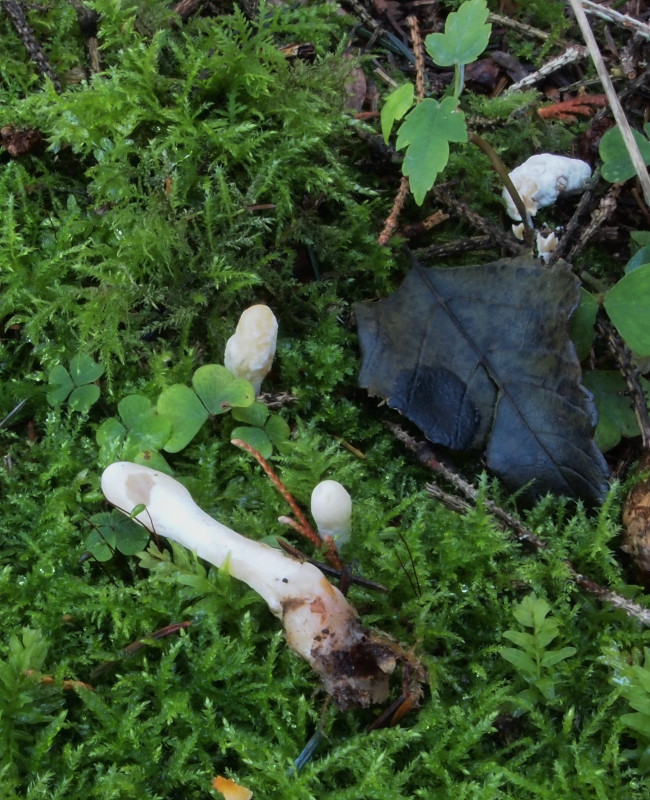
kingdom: Fungi
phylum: Ascomycota
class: Sordariomycetes
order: Hypocreales
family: Hypocreaceae
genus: Trichoderma
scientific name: Trichoderma leucopus
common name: lysstokket kødkerne
